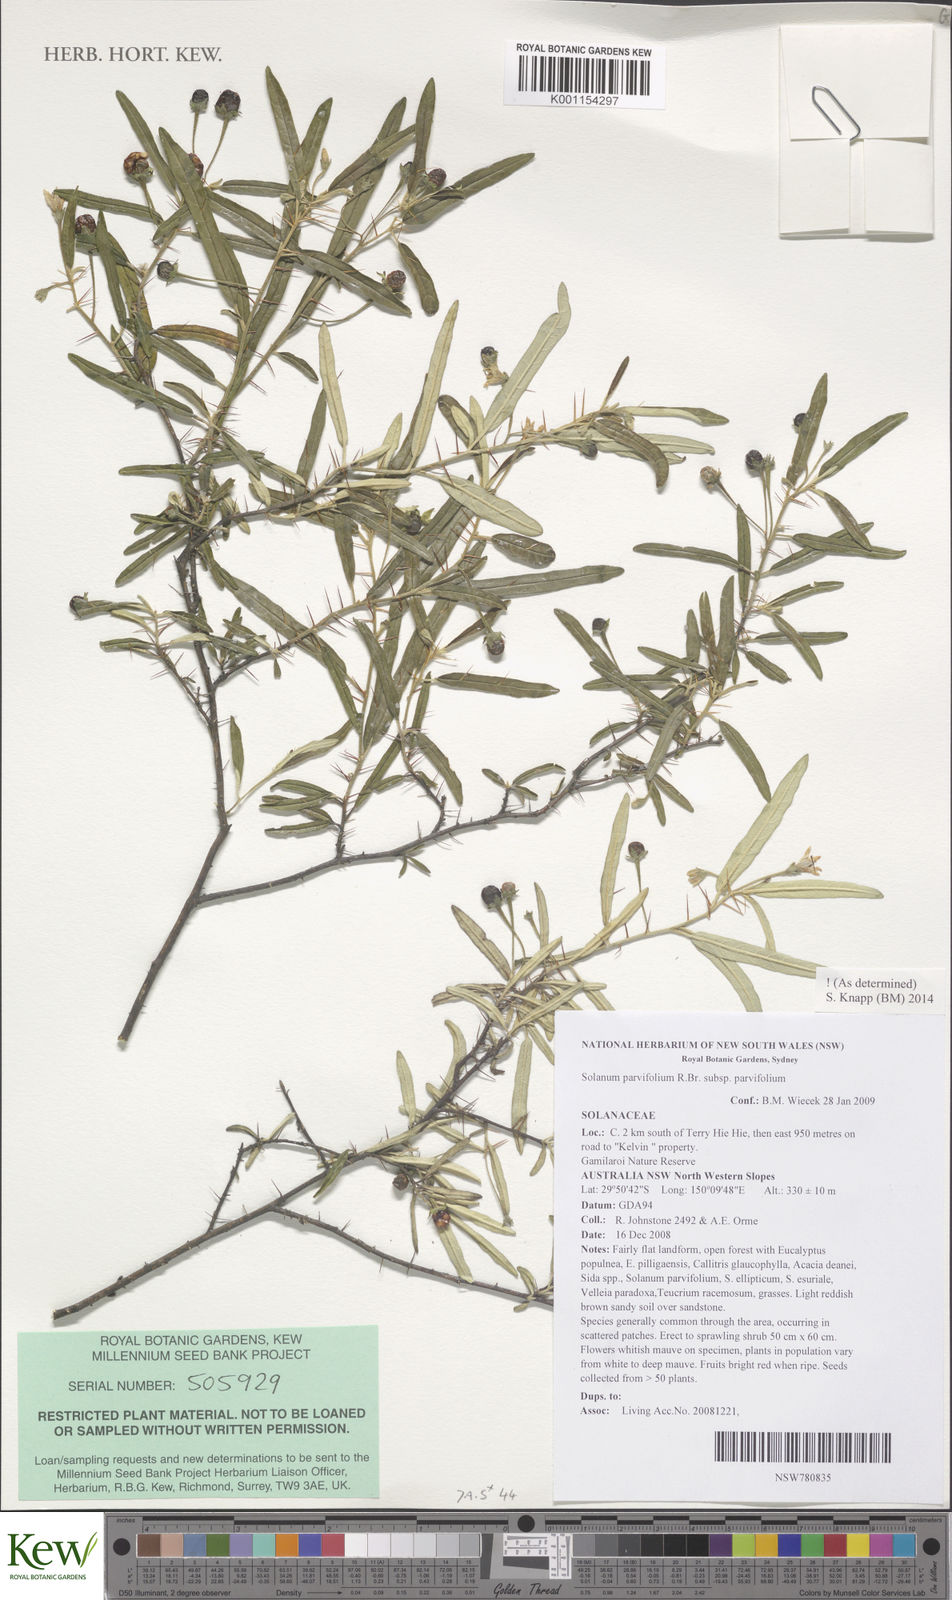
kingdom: Plantae
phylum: Tracheophyta
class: Magnoliopsida
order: Solanales
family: Solanaceae
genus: Solanum
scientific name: Solanum parvifolium
